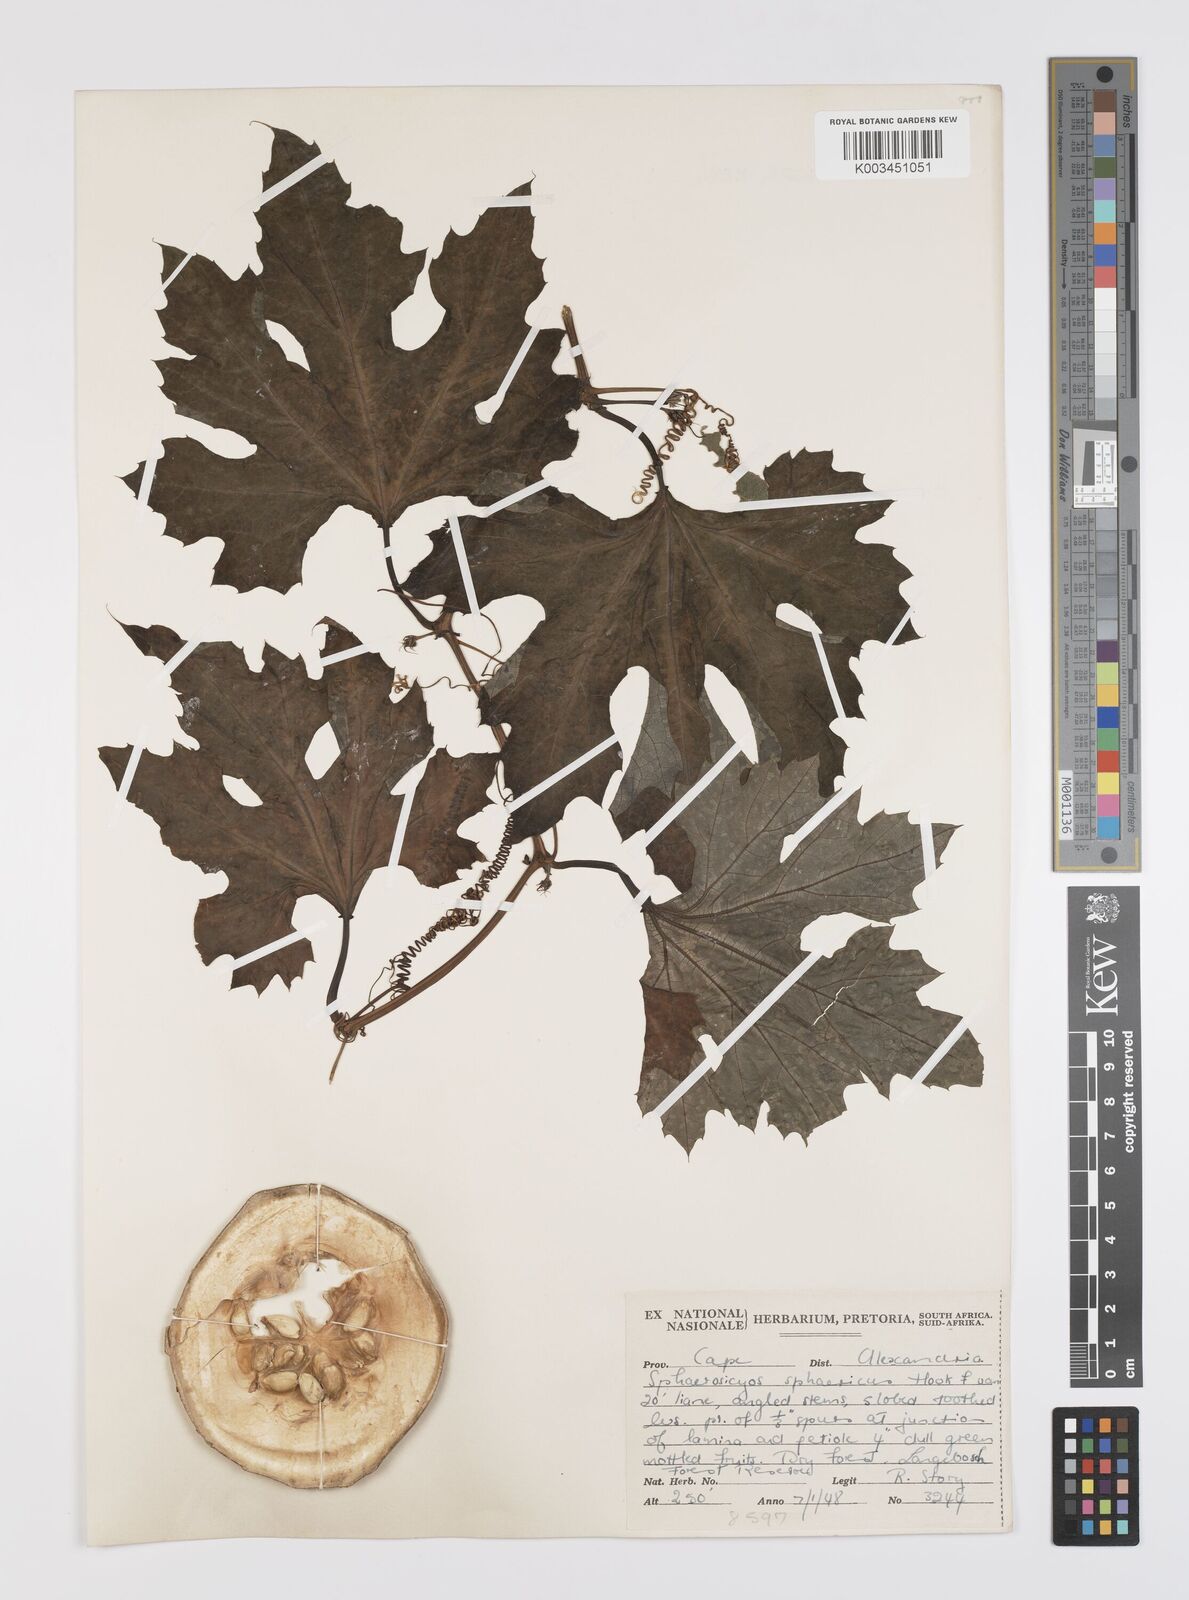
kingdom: Plantae
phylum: Tracheophyta
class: Magnoliopsida
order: Cucurbitales
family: Cucurbitaceae
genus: Lagenaria
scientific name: Lagenaria sphaerica
